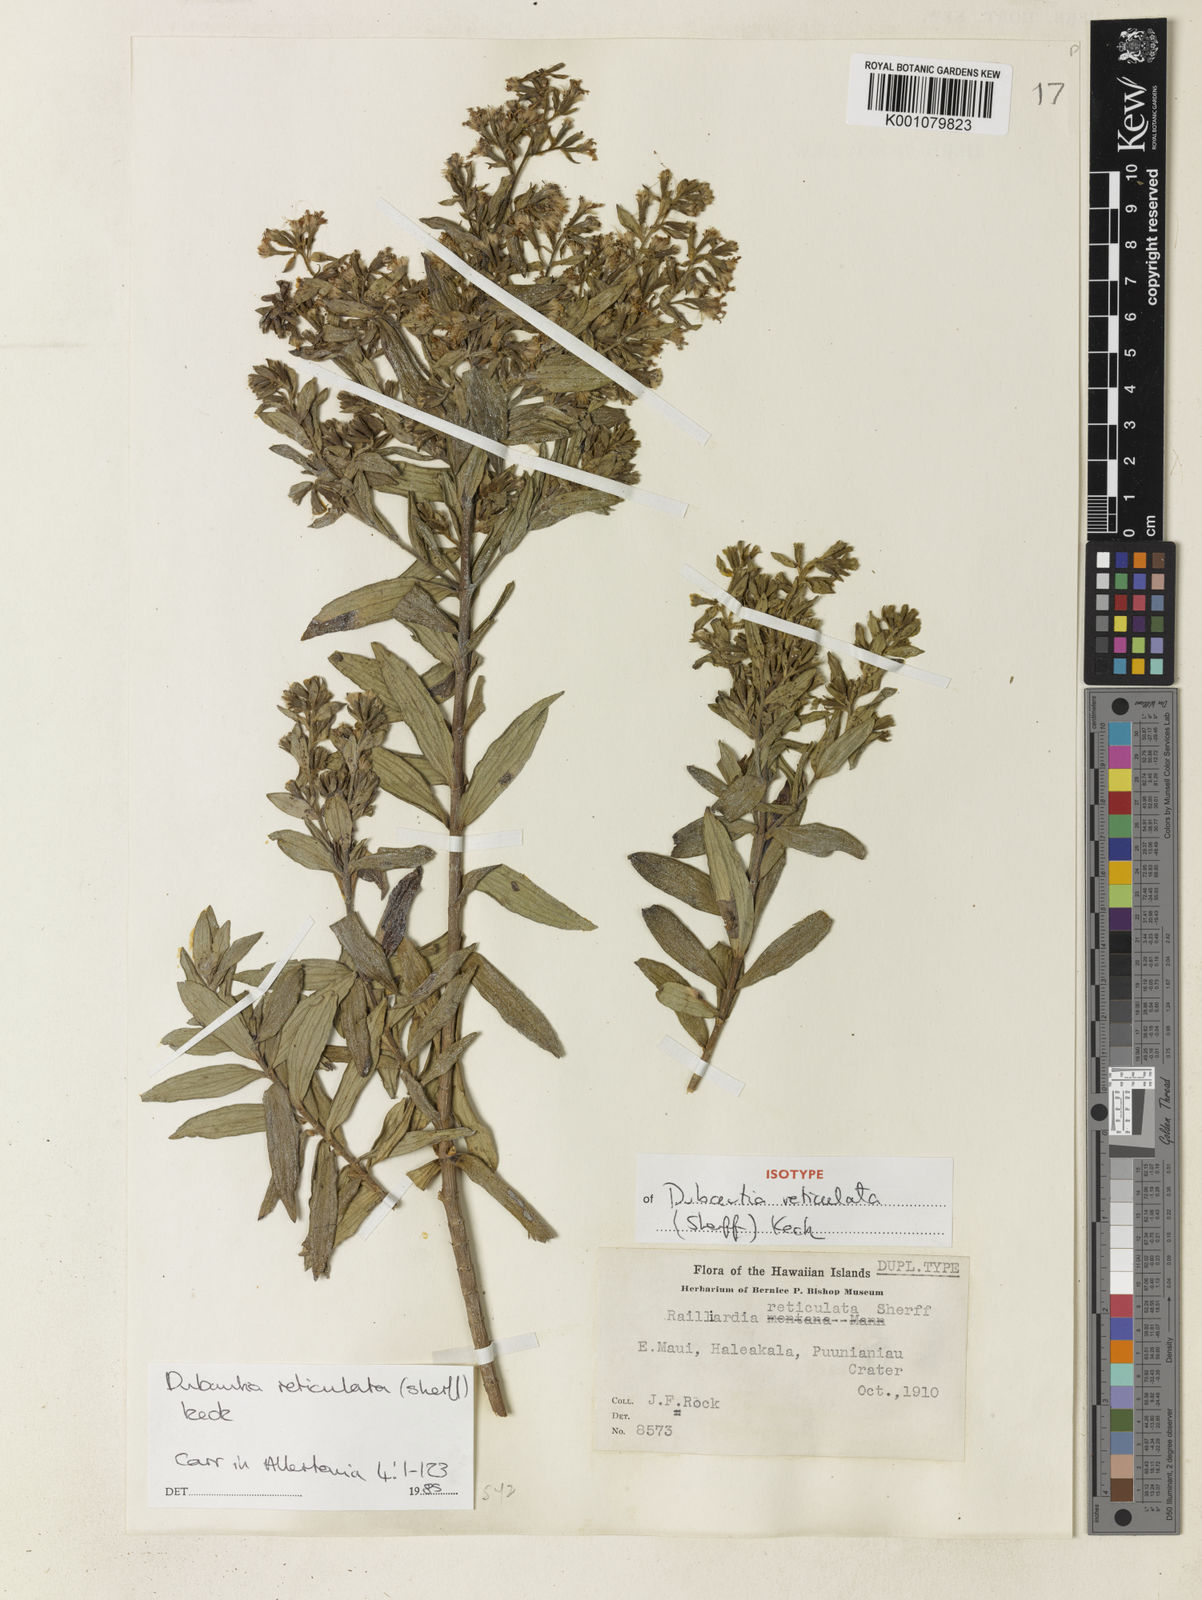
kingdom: Plantae
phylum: Tracheophyta
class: Magnoliopsida
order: Asterales
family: Asteraceae
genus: Dubautia
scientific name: Dubautia reticulata
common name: Net-veined dubautia
